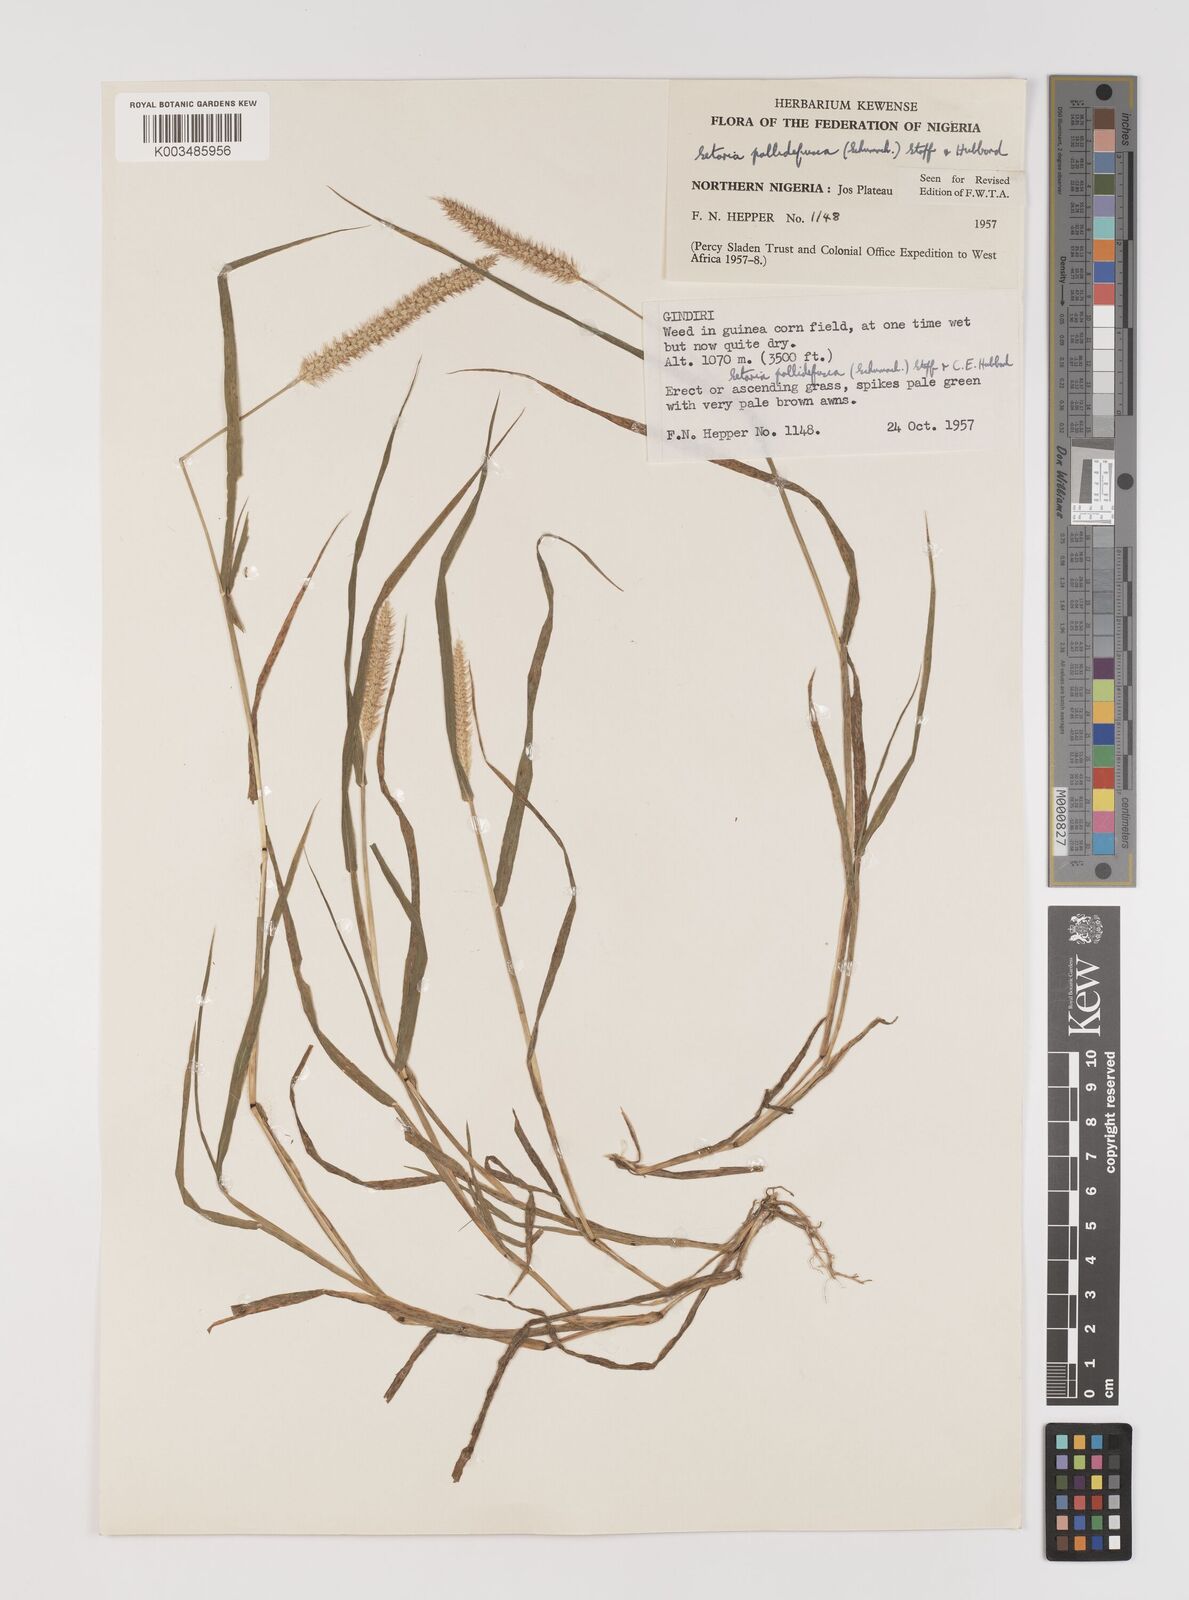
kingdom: Plantae
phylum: Tracheophyta
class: Liliopsida
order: Poales
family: Poaceae
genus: Setaria
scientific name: Setaria pumila
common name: Yellow bristle-grass
